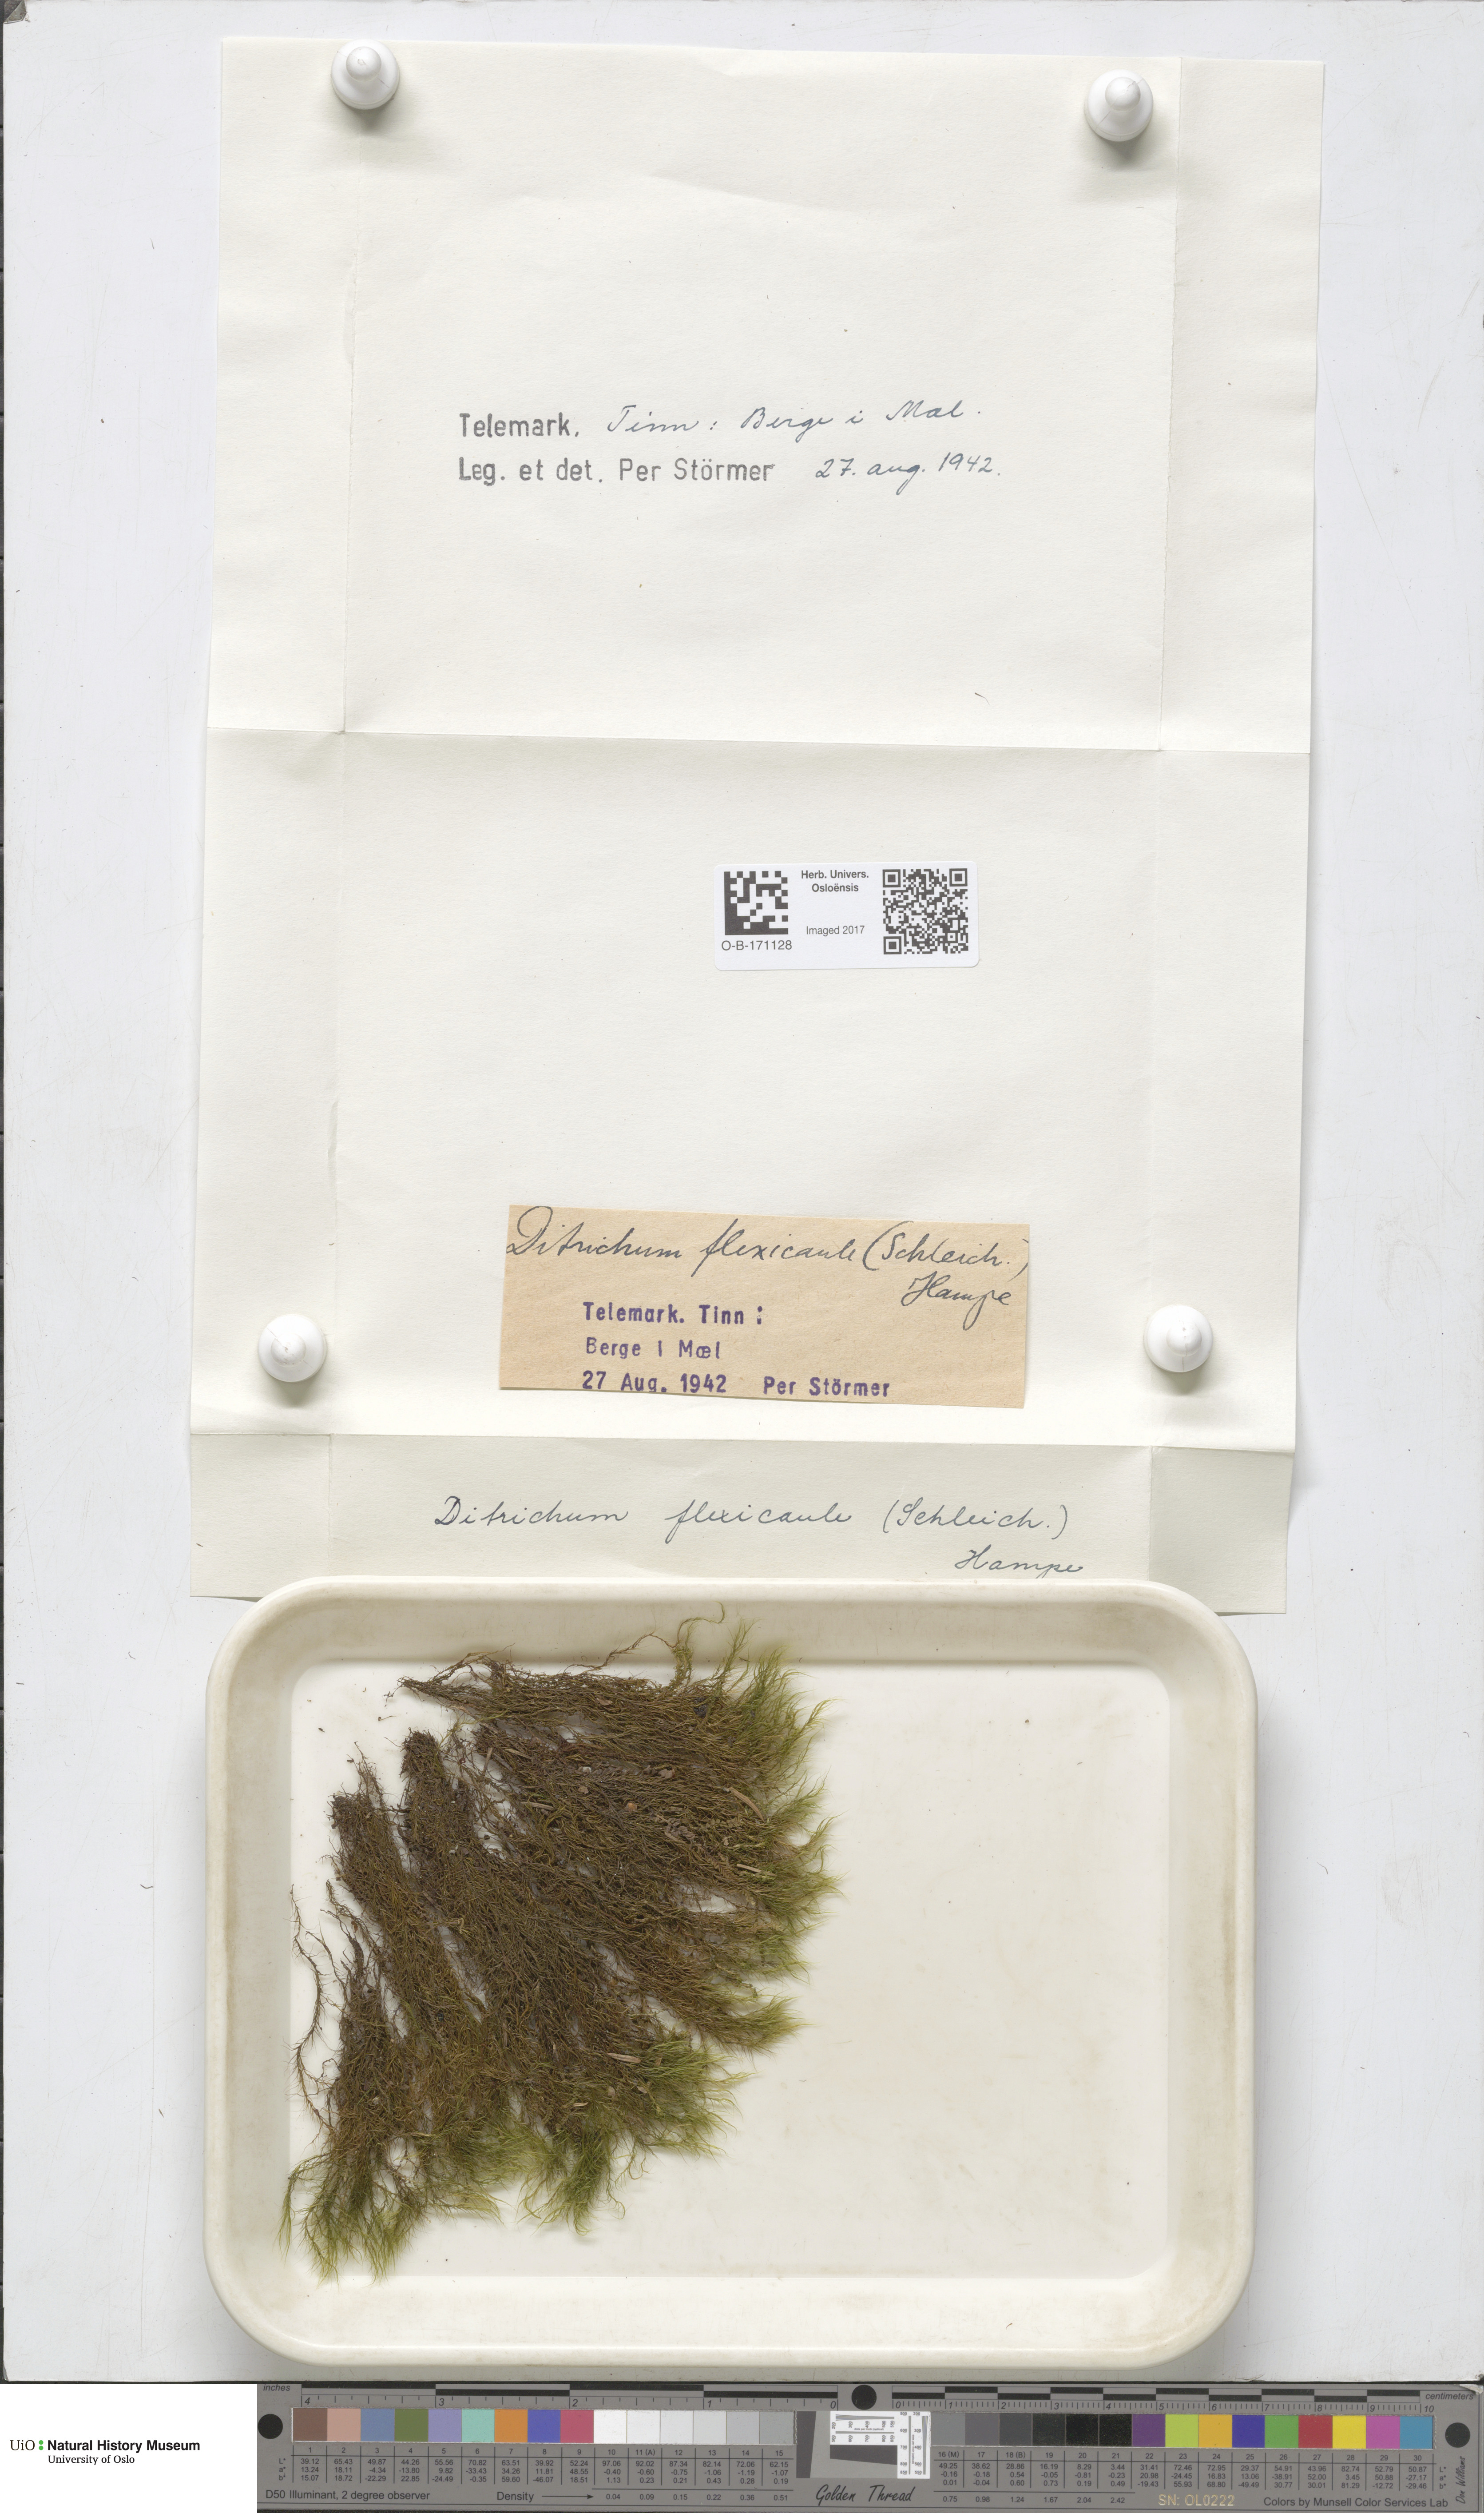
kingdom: Plantae
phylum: Bryophyta
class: Bryopsida
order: Scouleriales
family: Flexitrichaceae
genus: Flexitrichum
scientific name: Flexitrichum flexicaule
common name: Bendy ditrichum
